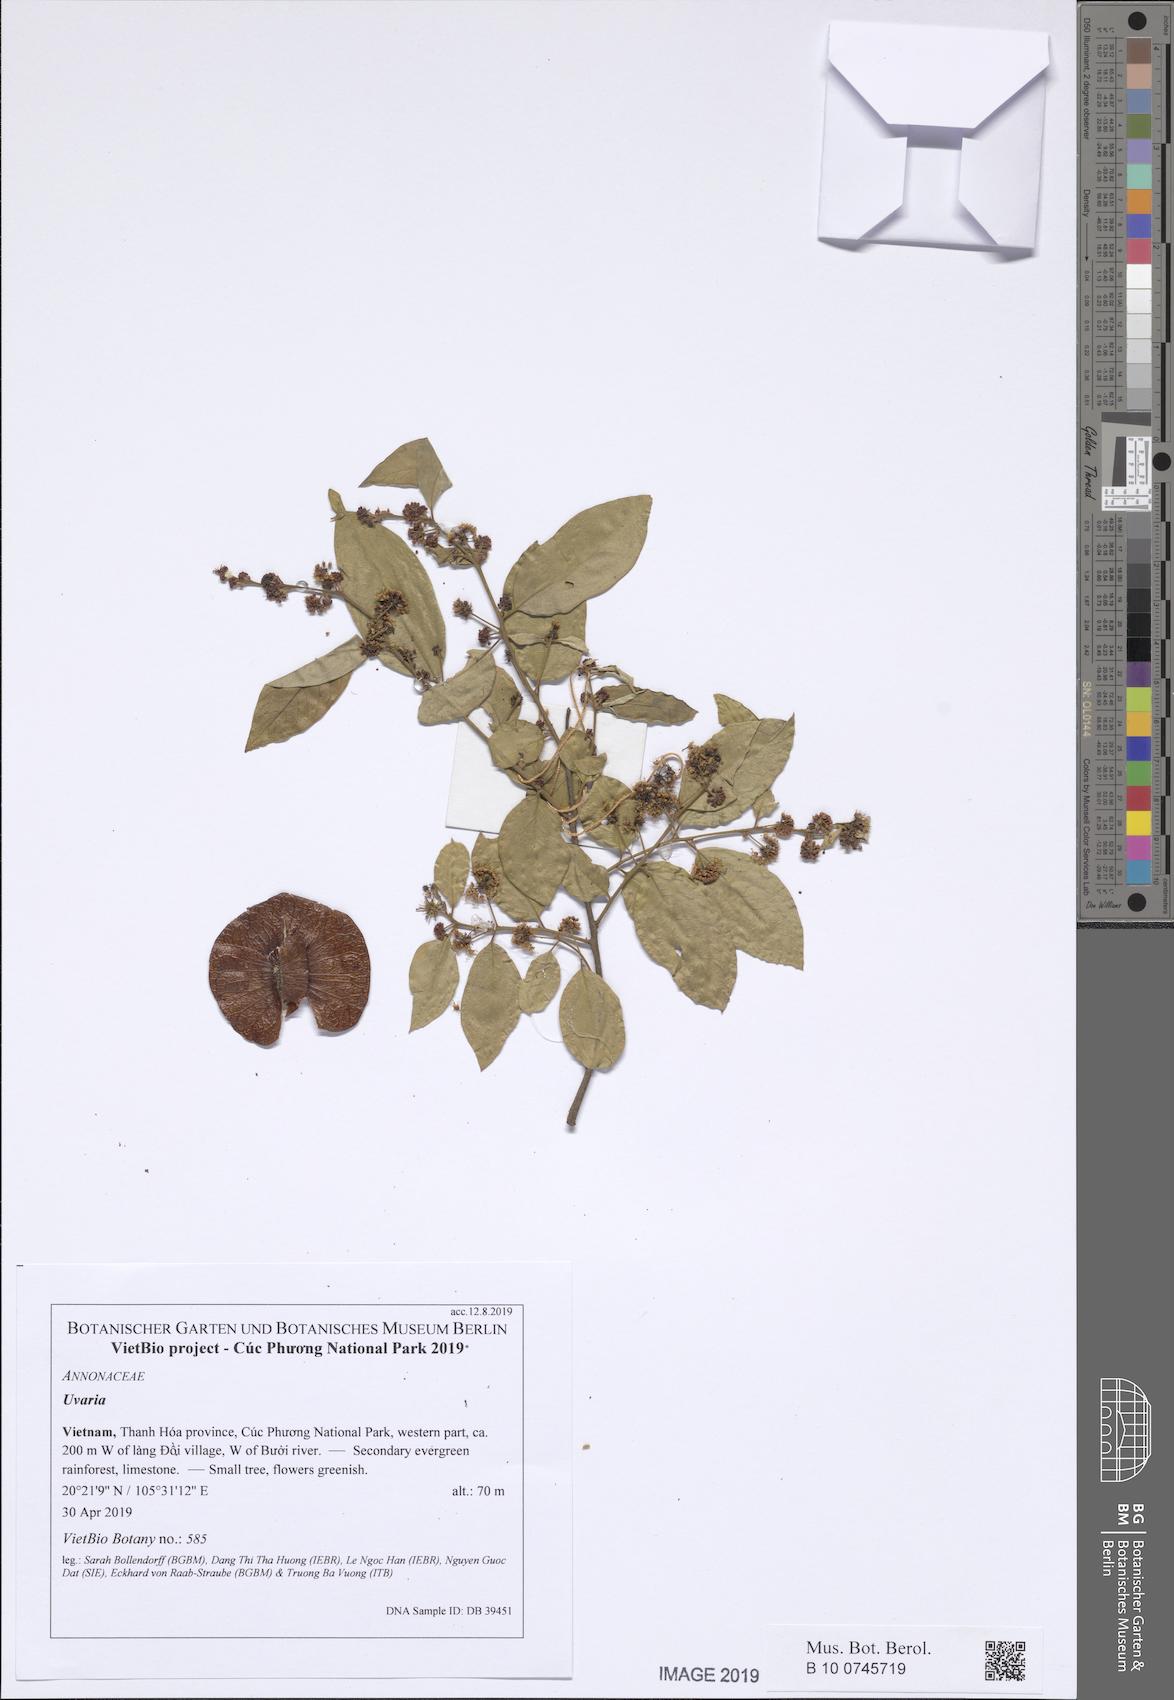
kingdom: Plantae
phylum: Tracheophyta
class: Magnoliopsida
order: Myrtales
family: Combretaceae
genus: Terminalia
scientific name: Terminalia phillyreifolia
